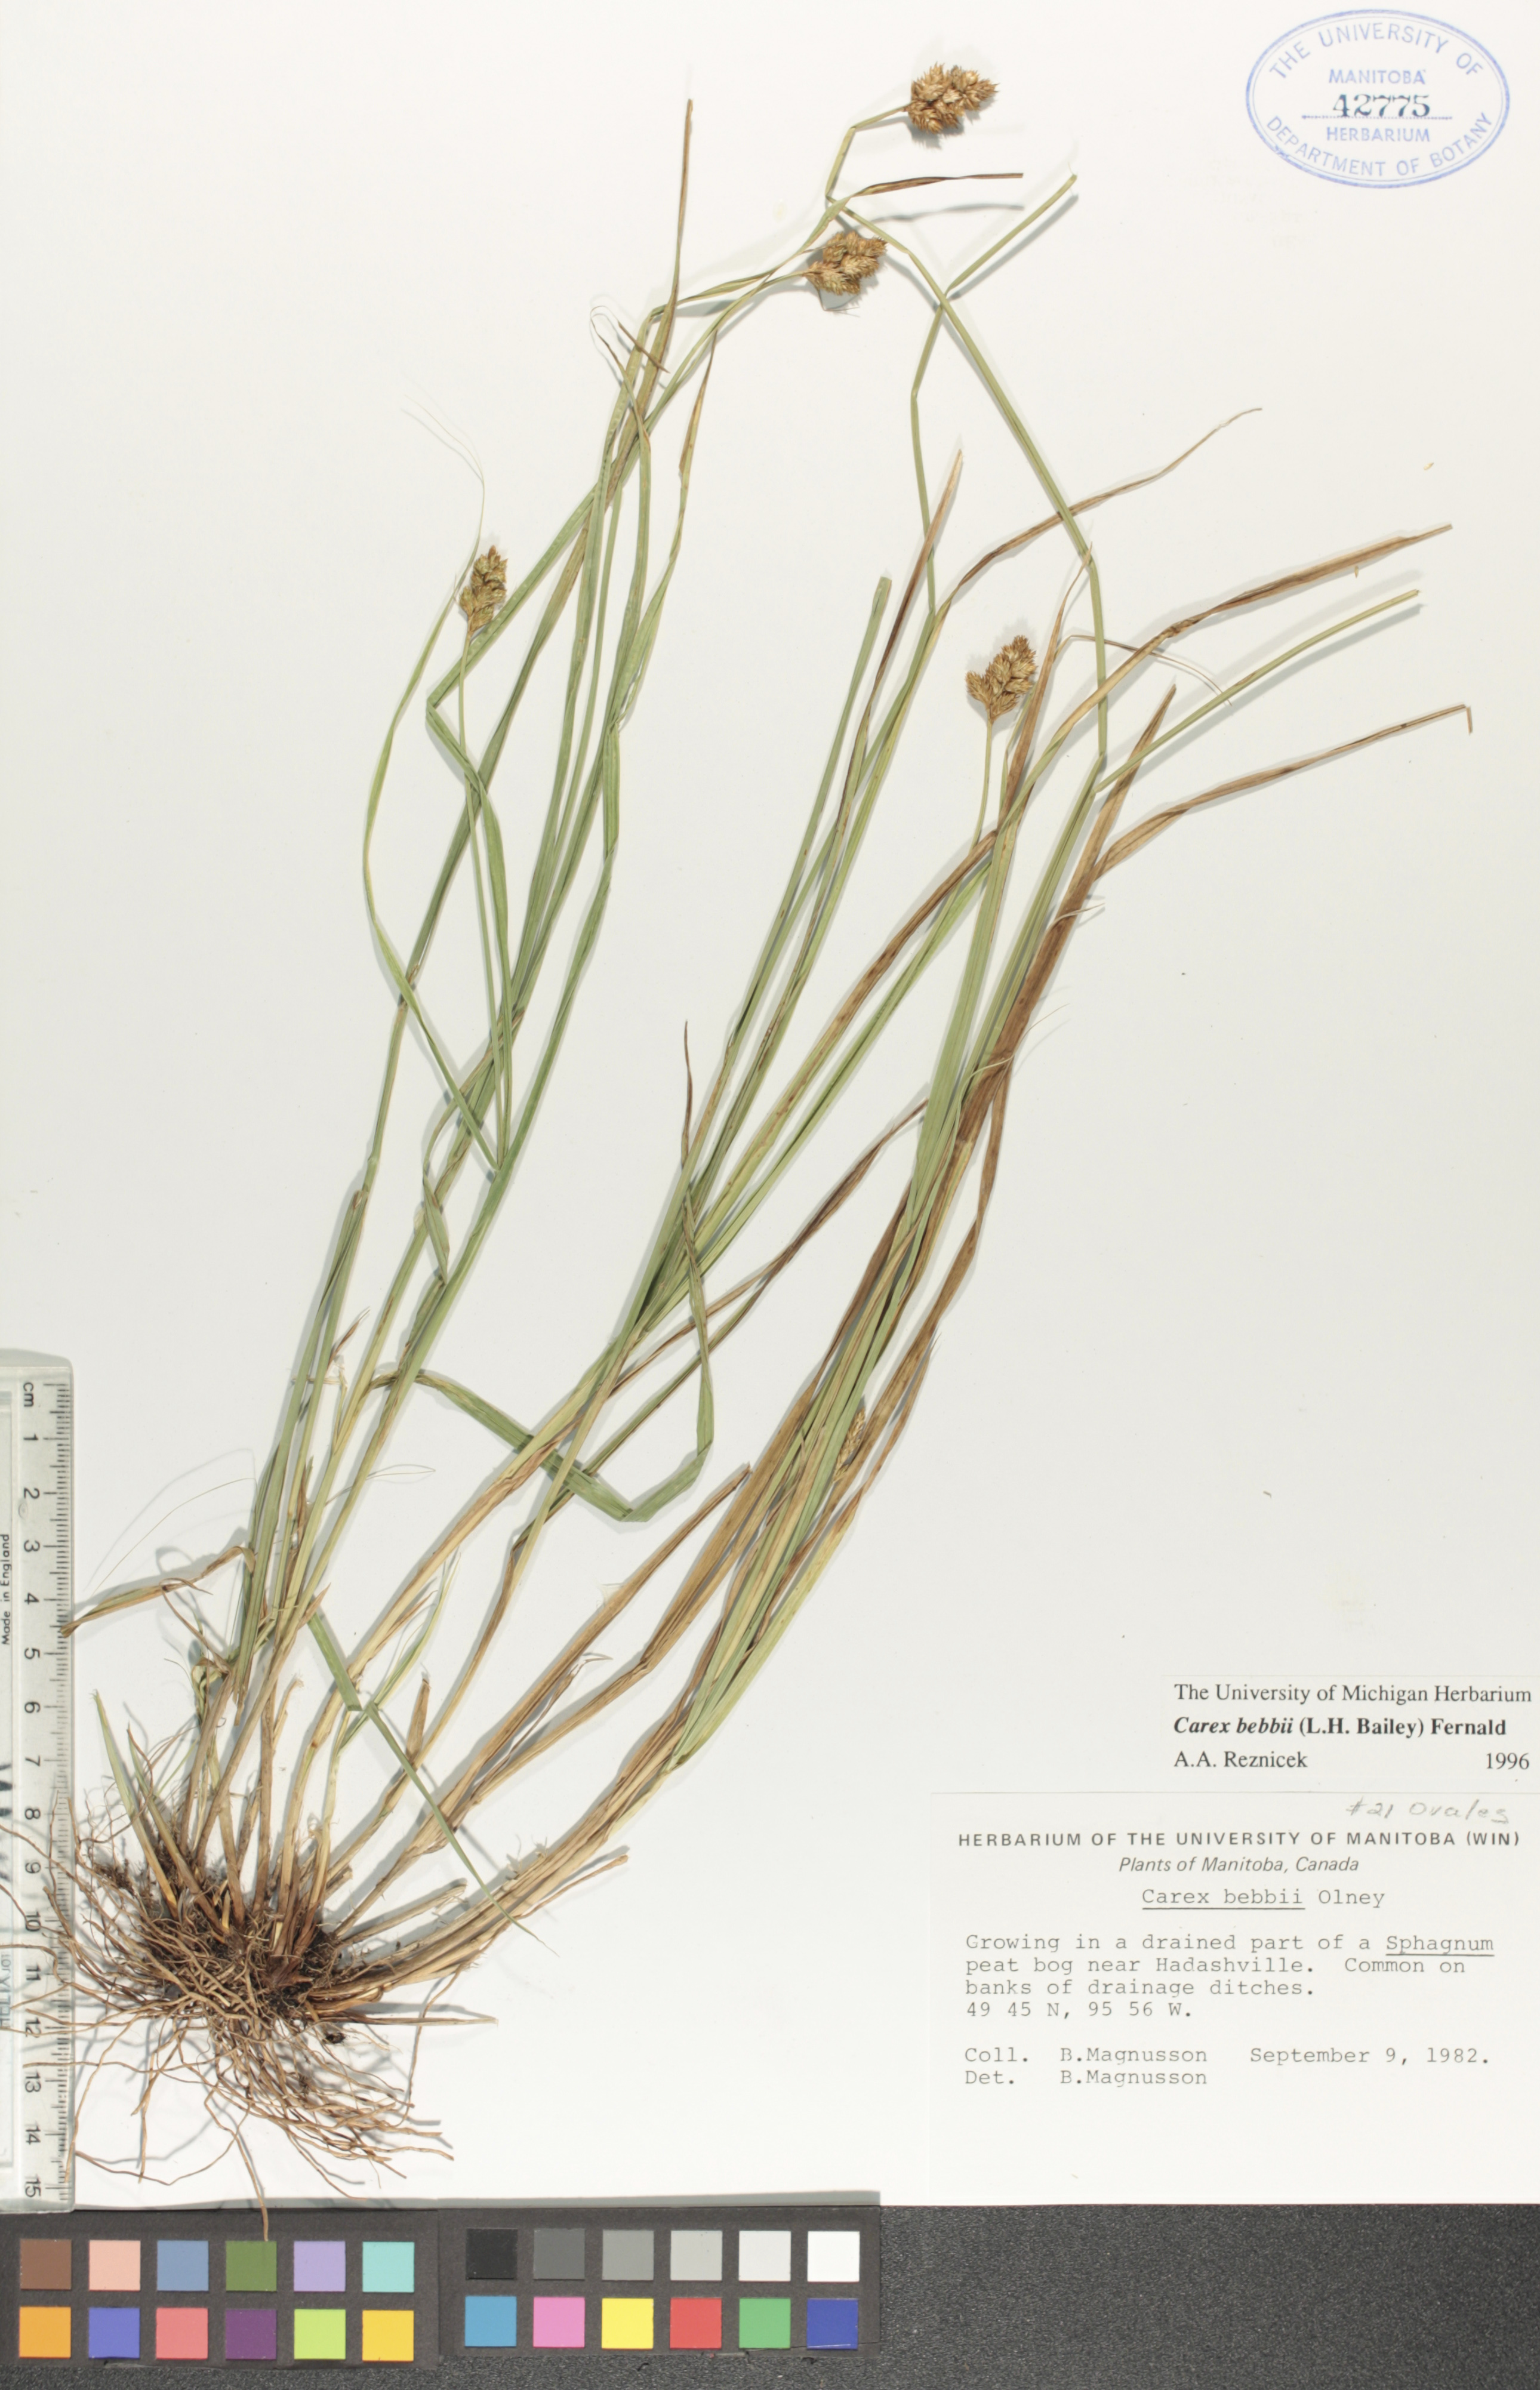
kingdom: Plantae
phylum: Tracheophyta
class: Liliopsida
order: Poales
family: Cyperaceae
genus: Carex
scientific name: Carex bebbii
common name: Bebb's sedge
